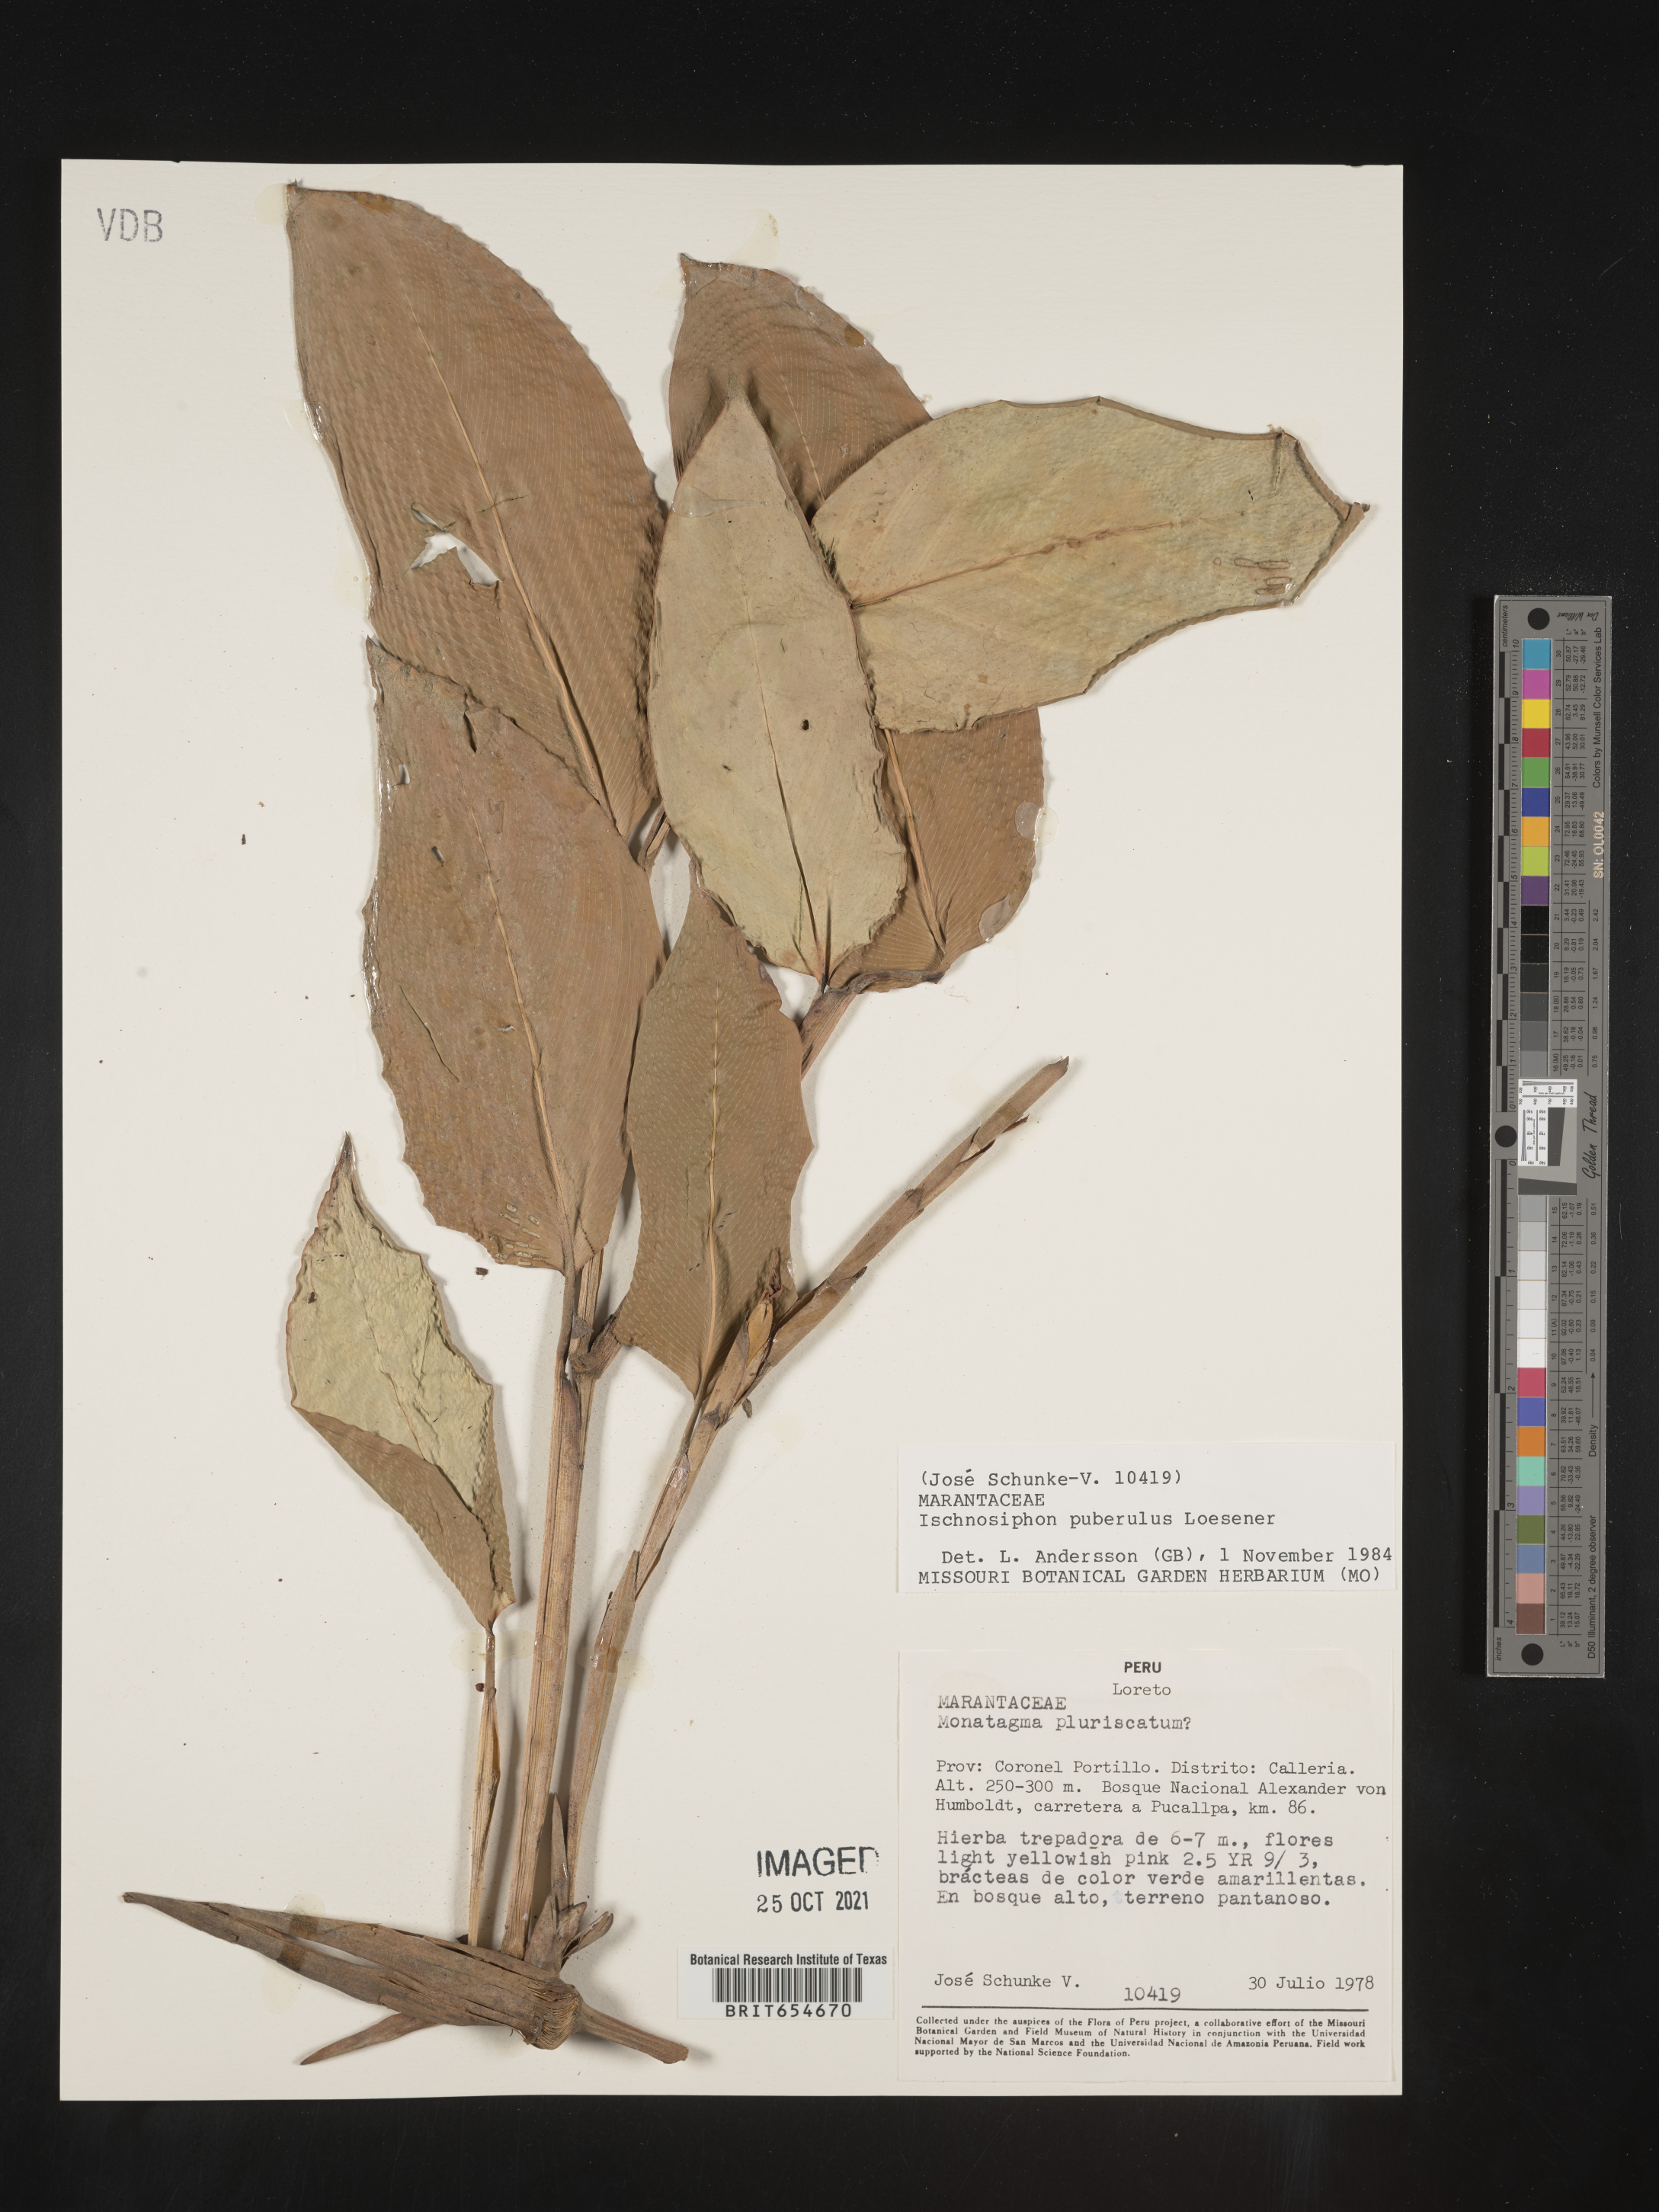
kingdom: Plantae
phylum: Tracheophyta
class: Liliopsida
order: Zingiberales
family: Marantaceae
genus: Ischnosiphon
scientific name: Ischnosiphon
